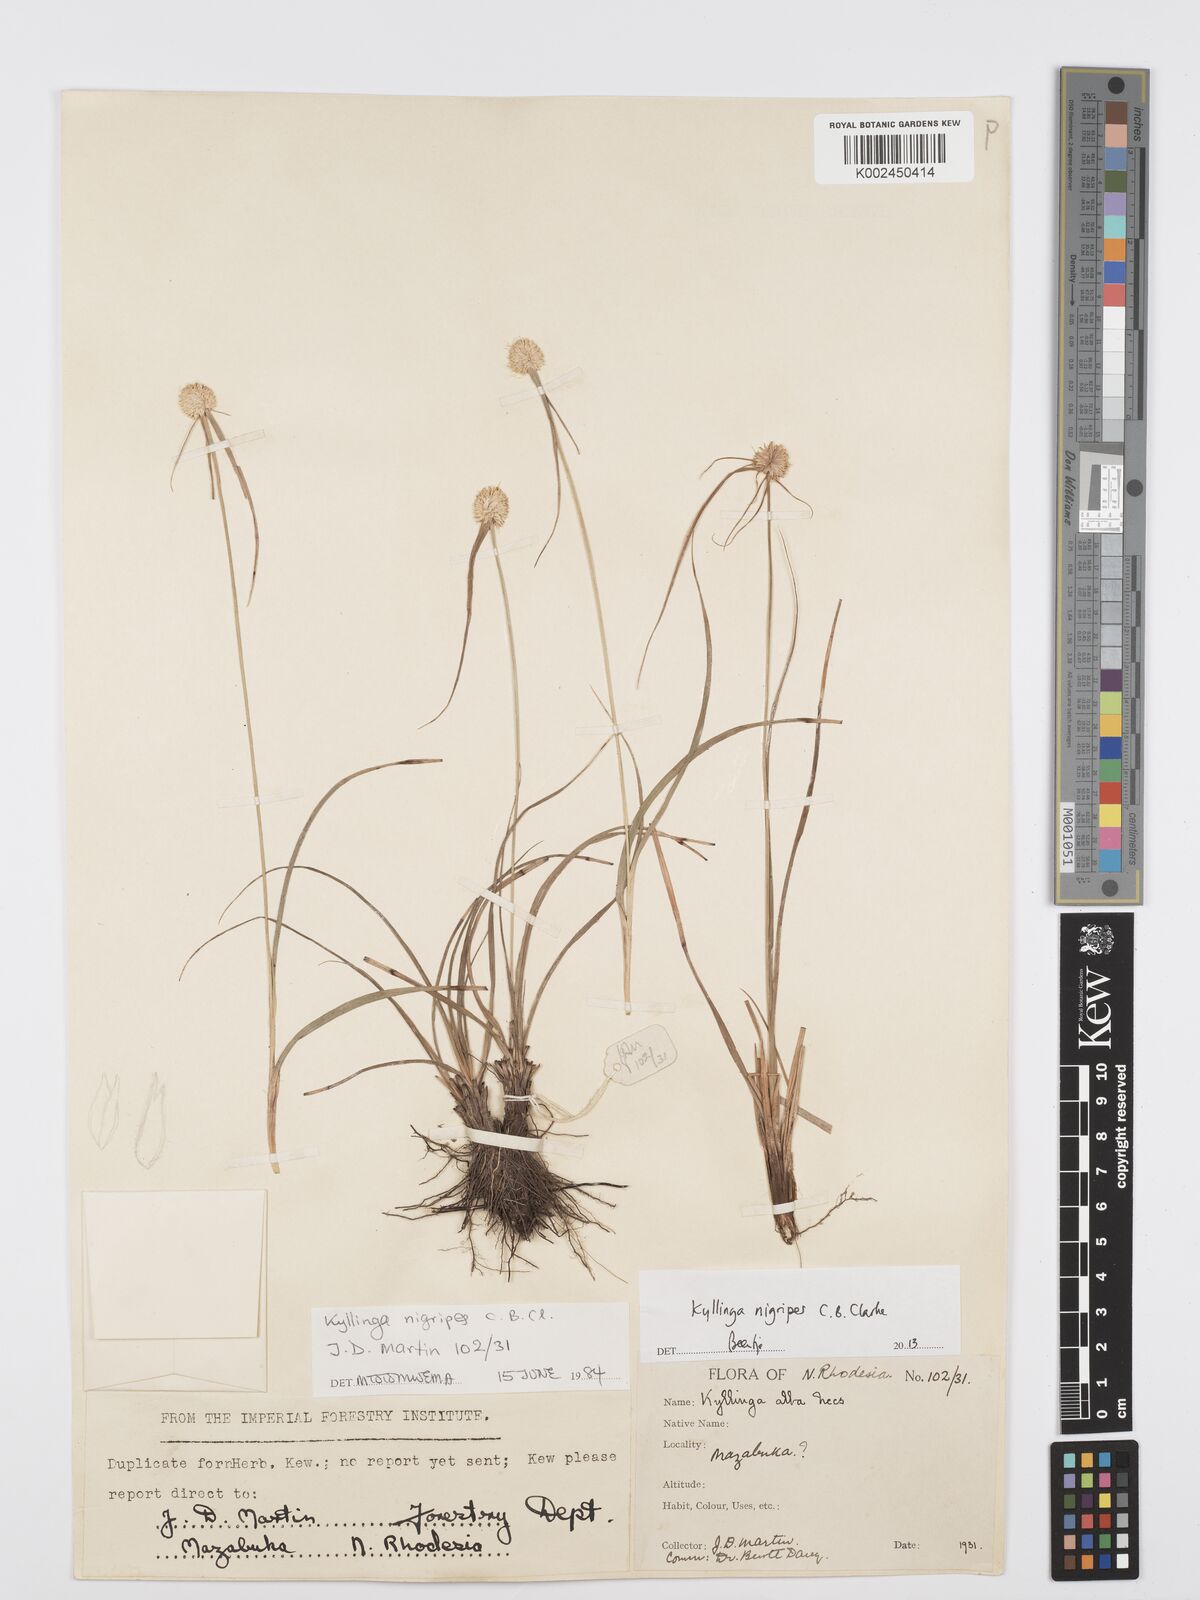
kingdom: Plantae
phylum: Tracheophyta
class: Liliopsida
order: Poales
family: Cyperaceae
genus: Cyperus
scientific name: Cyperus nigripes
